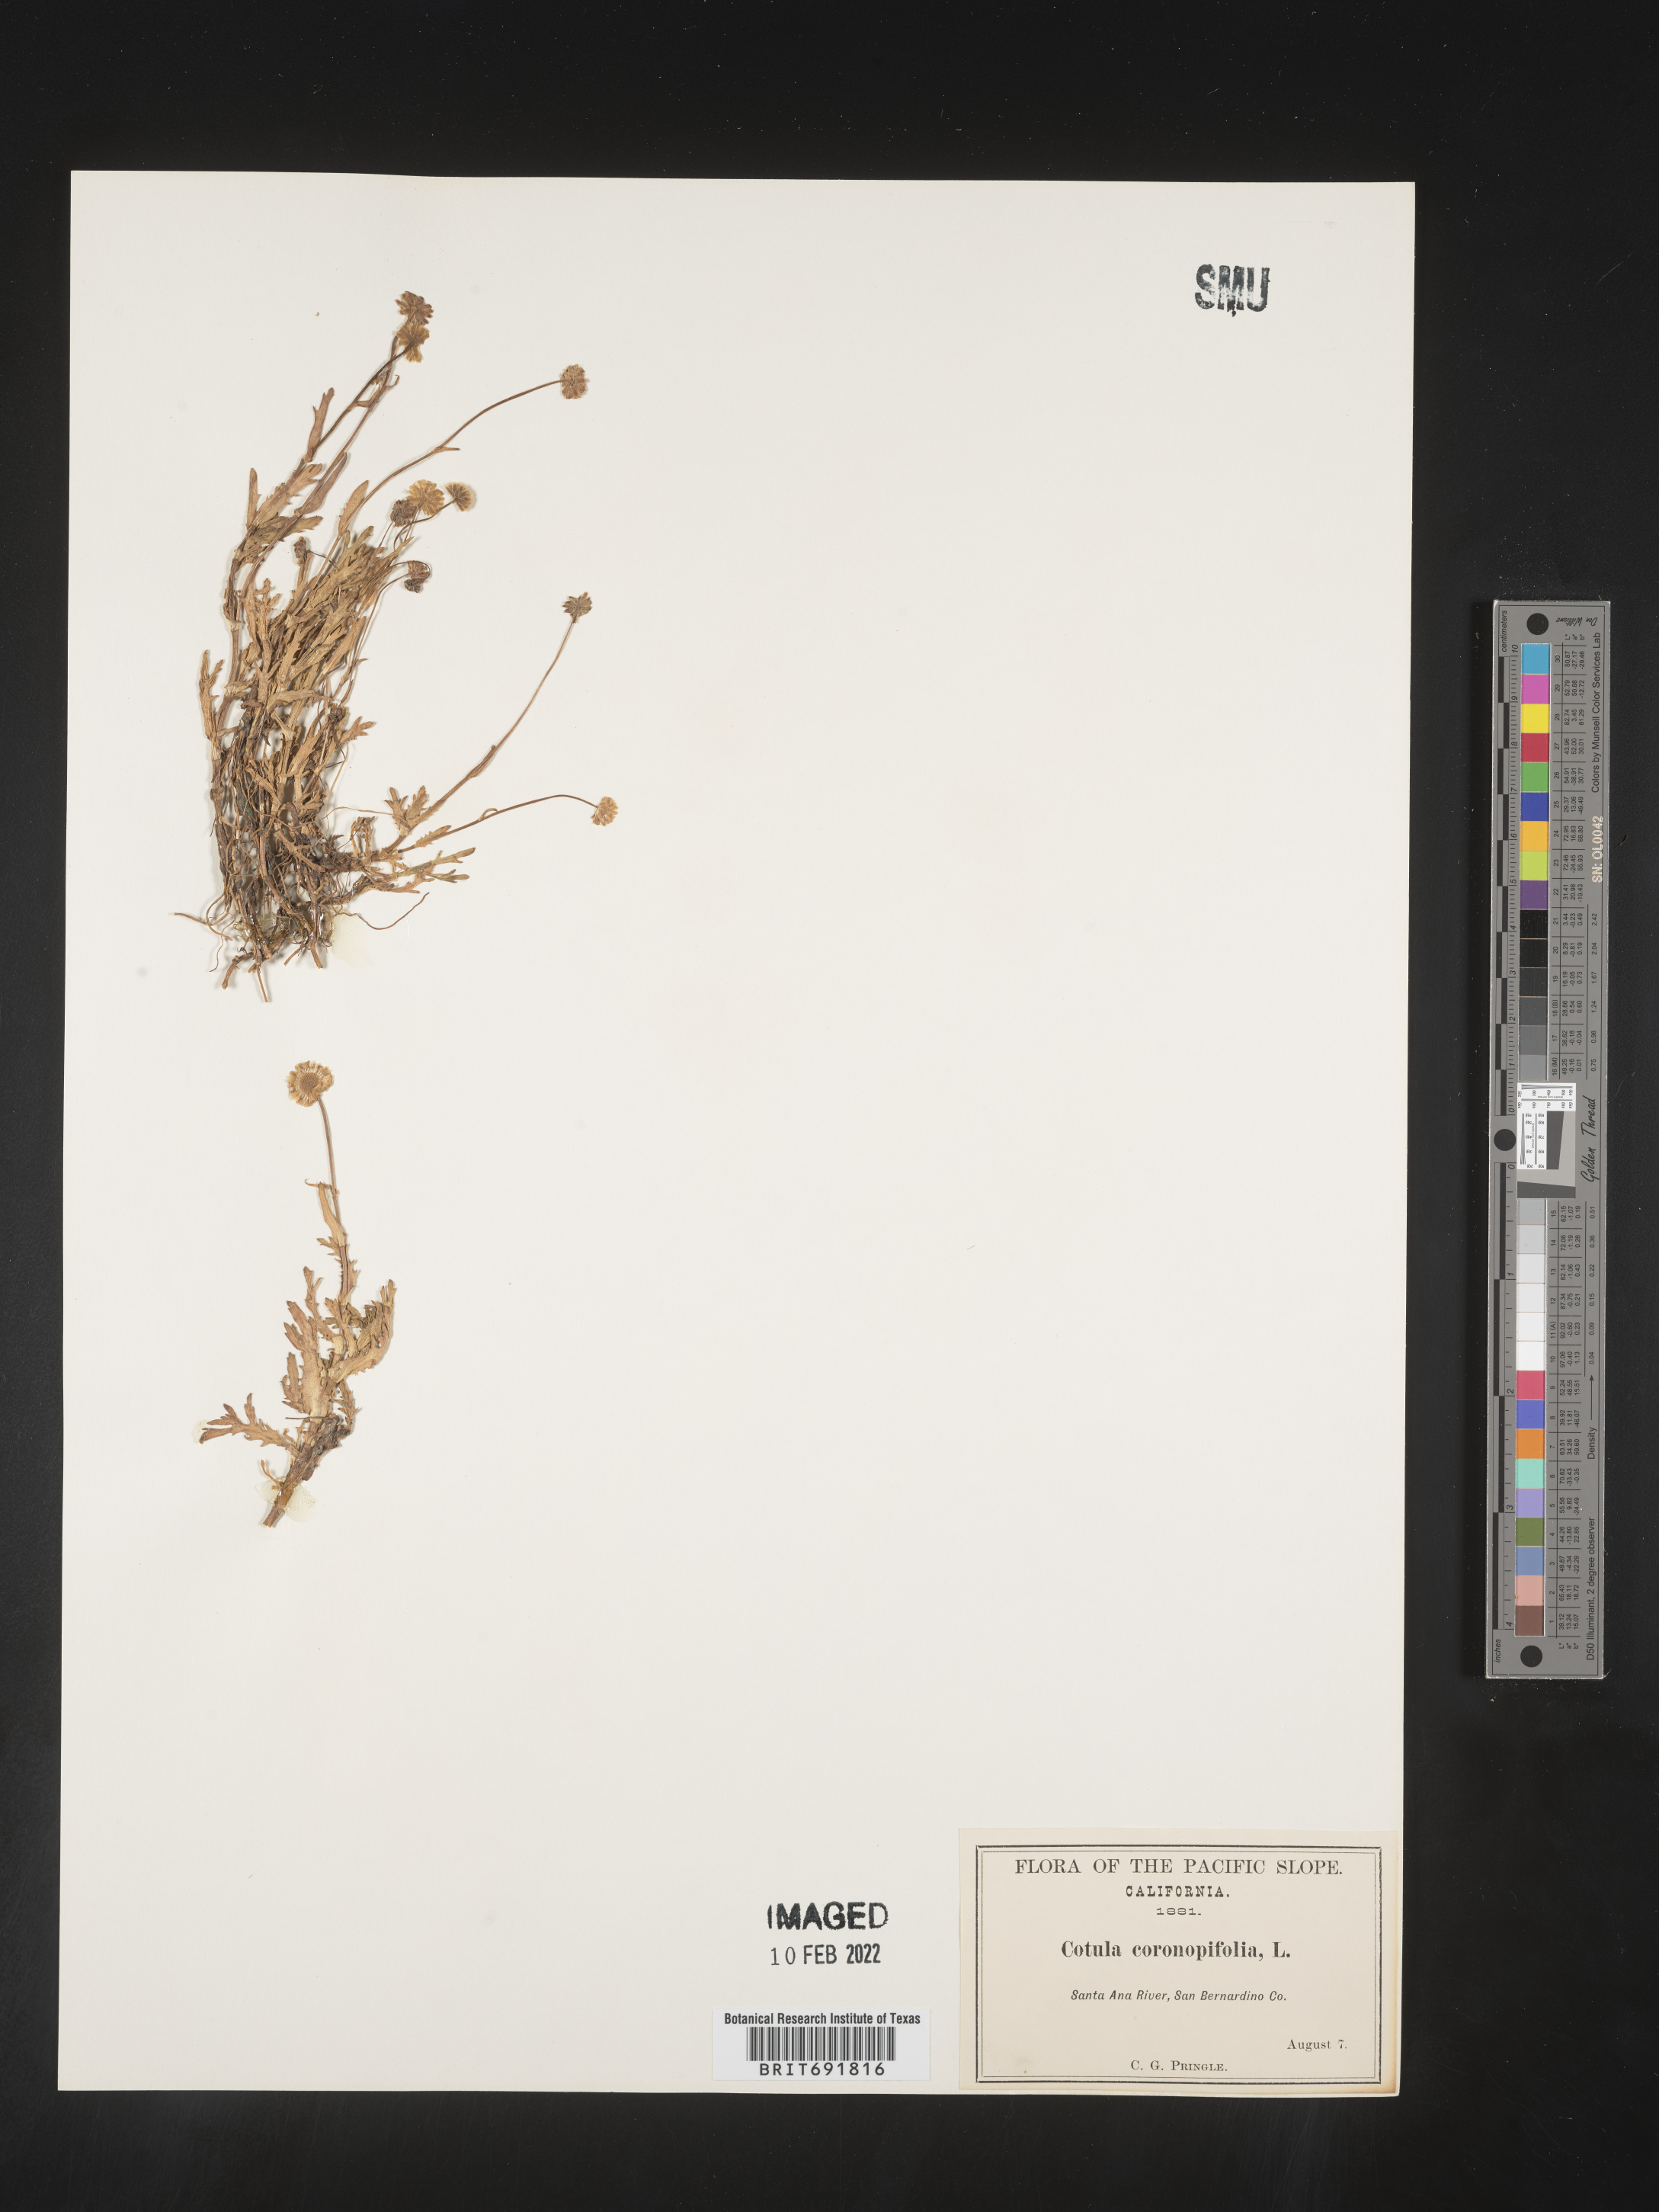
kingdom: Plantae
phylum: Tracheophyta
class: Magnoliopsida
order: Asterales
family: Asteraceae
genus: Cotula
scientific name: Cotula
